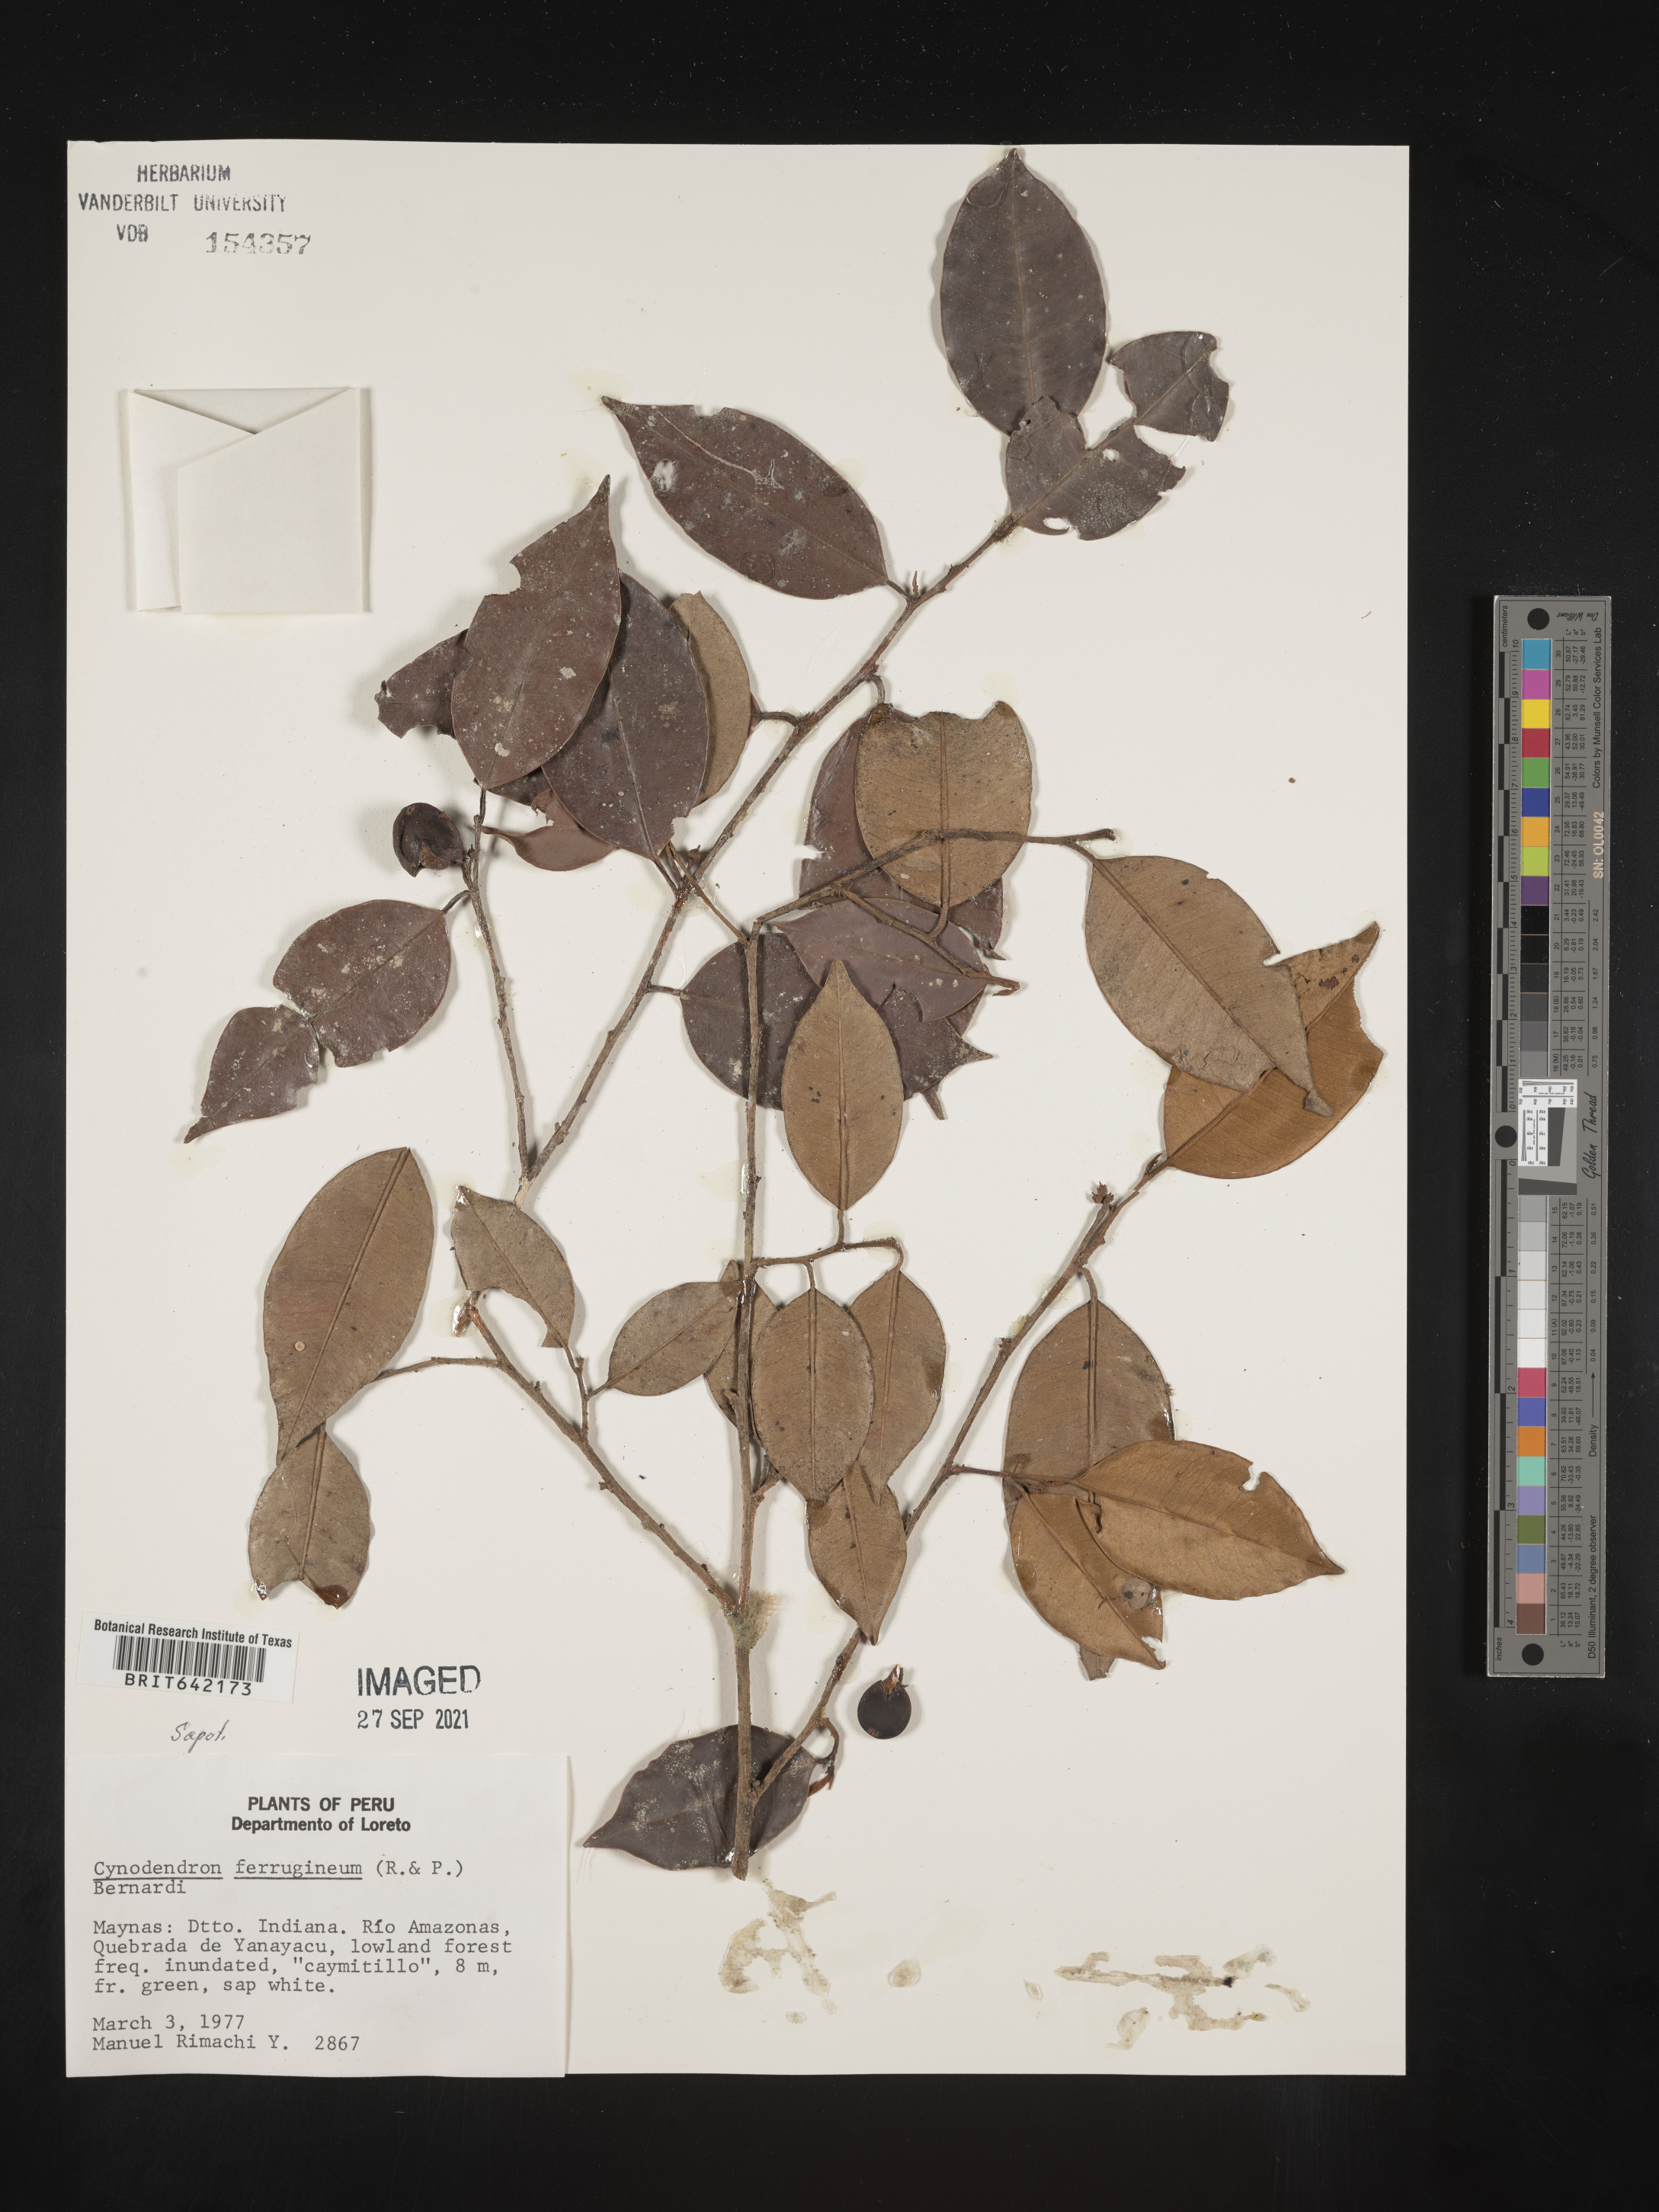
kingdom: Plantae
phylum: Tracheophyta
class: Magnoliopsida
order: Ericales
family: Sapotaceae
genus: Chrysophyllum
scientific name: Chrysophyllum
